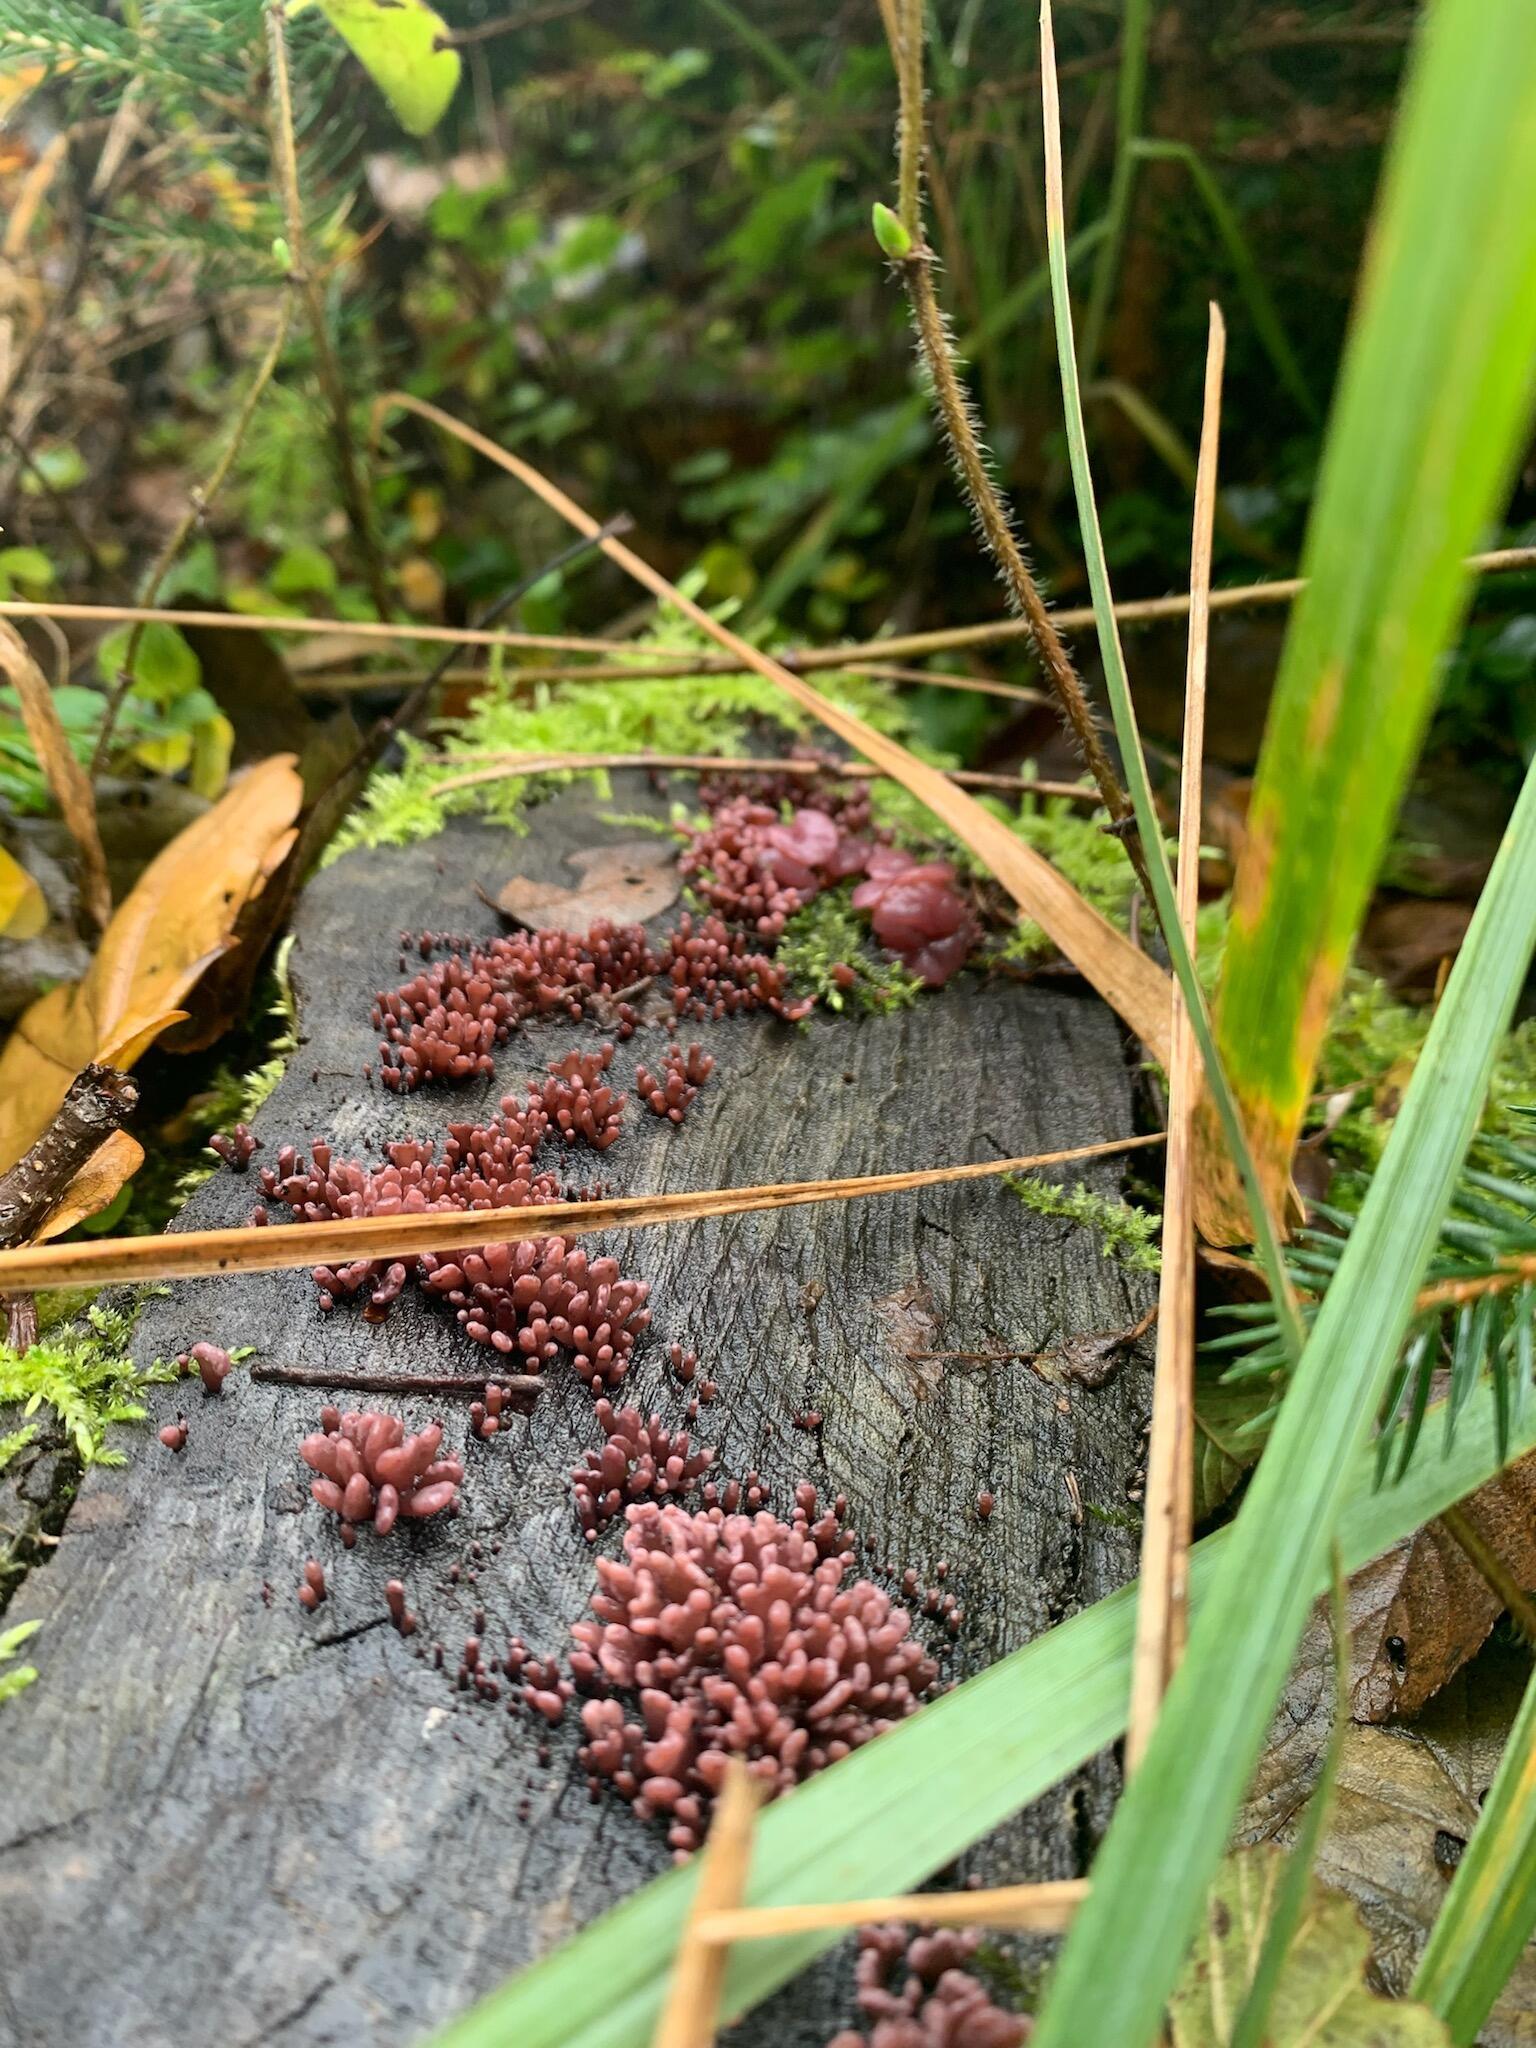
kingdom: Fungi
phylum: Ascomycota
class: Leotiomycetes
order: Helotiales
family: Gelatinodiscaceae
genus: Ascocoryne
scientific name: Ascocoryne sarcoides
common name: rødlilla sejskive
